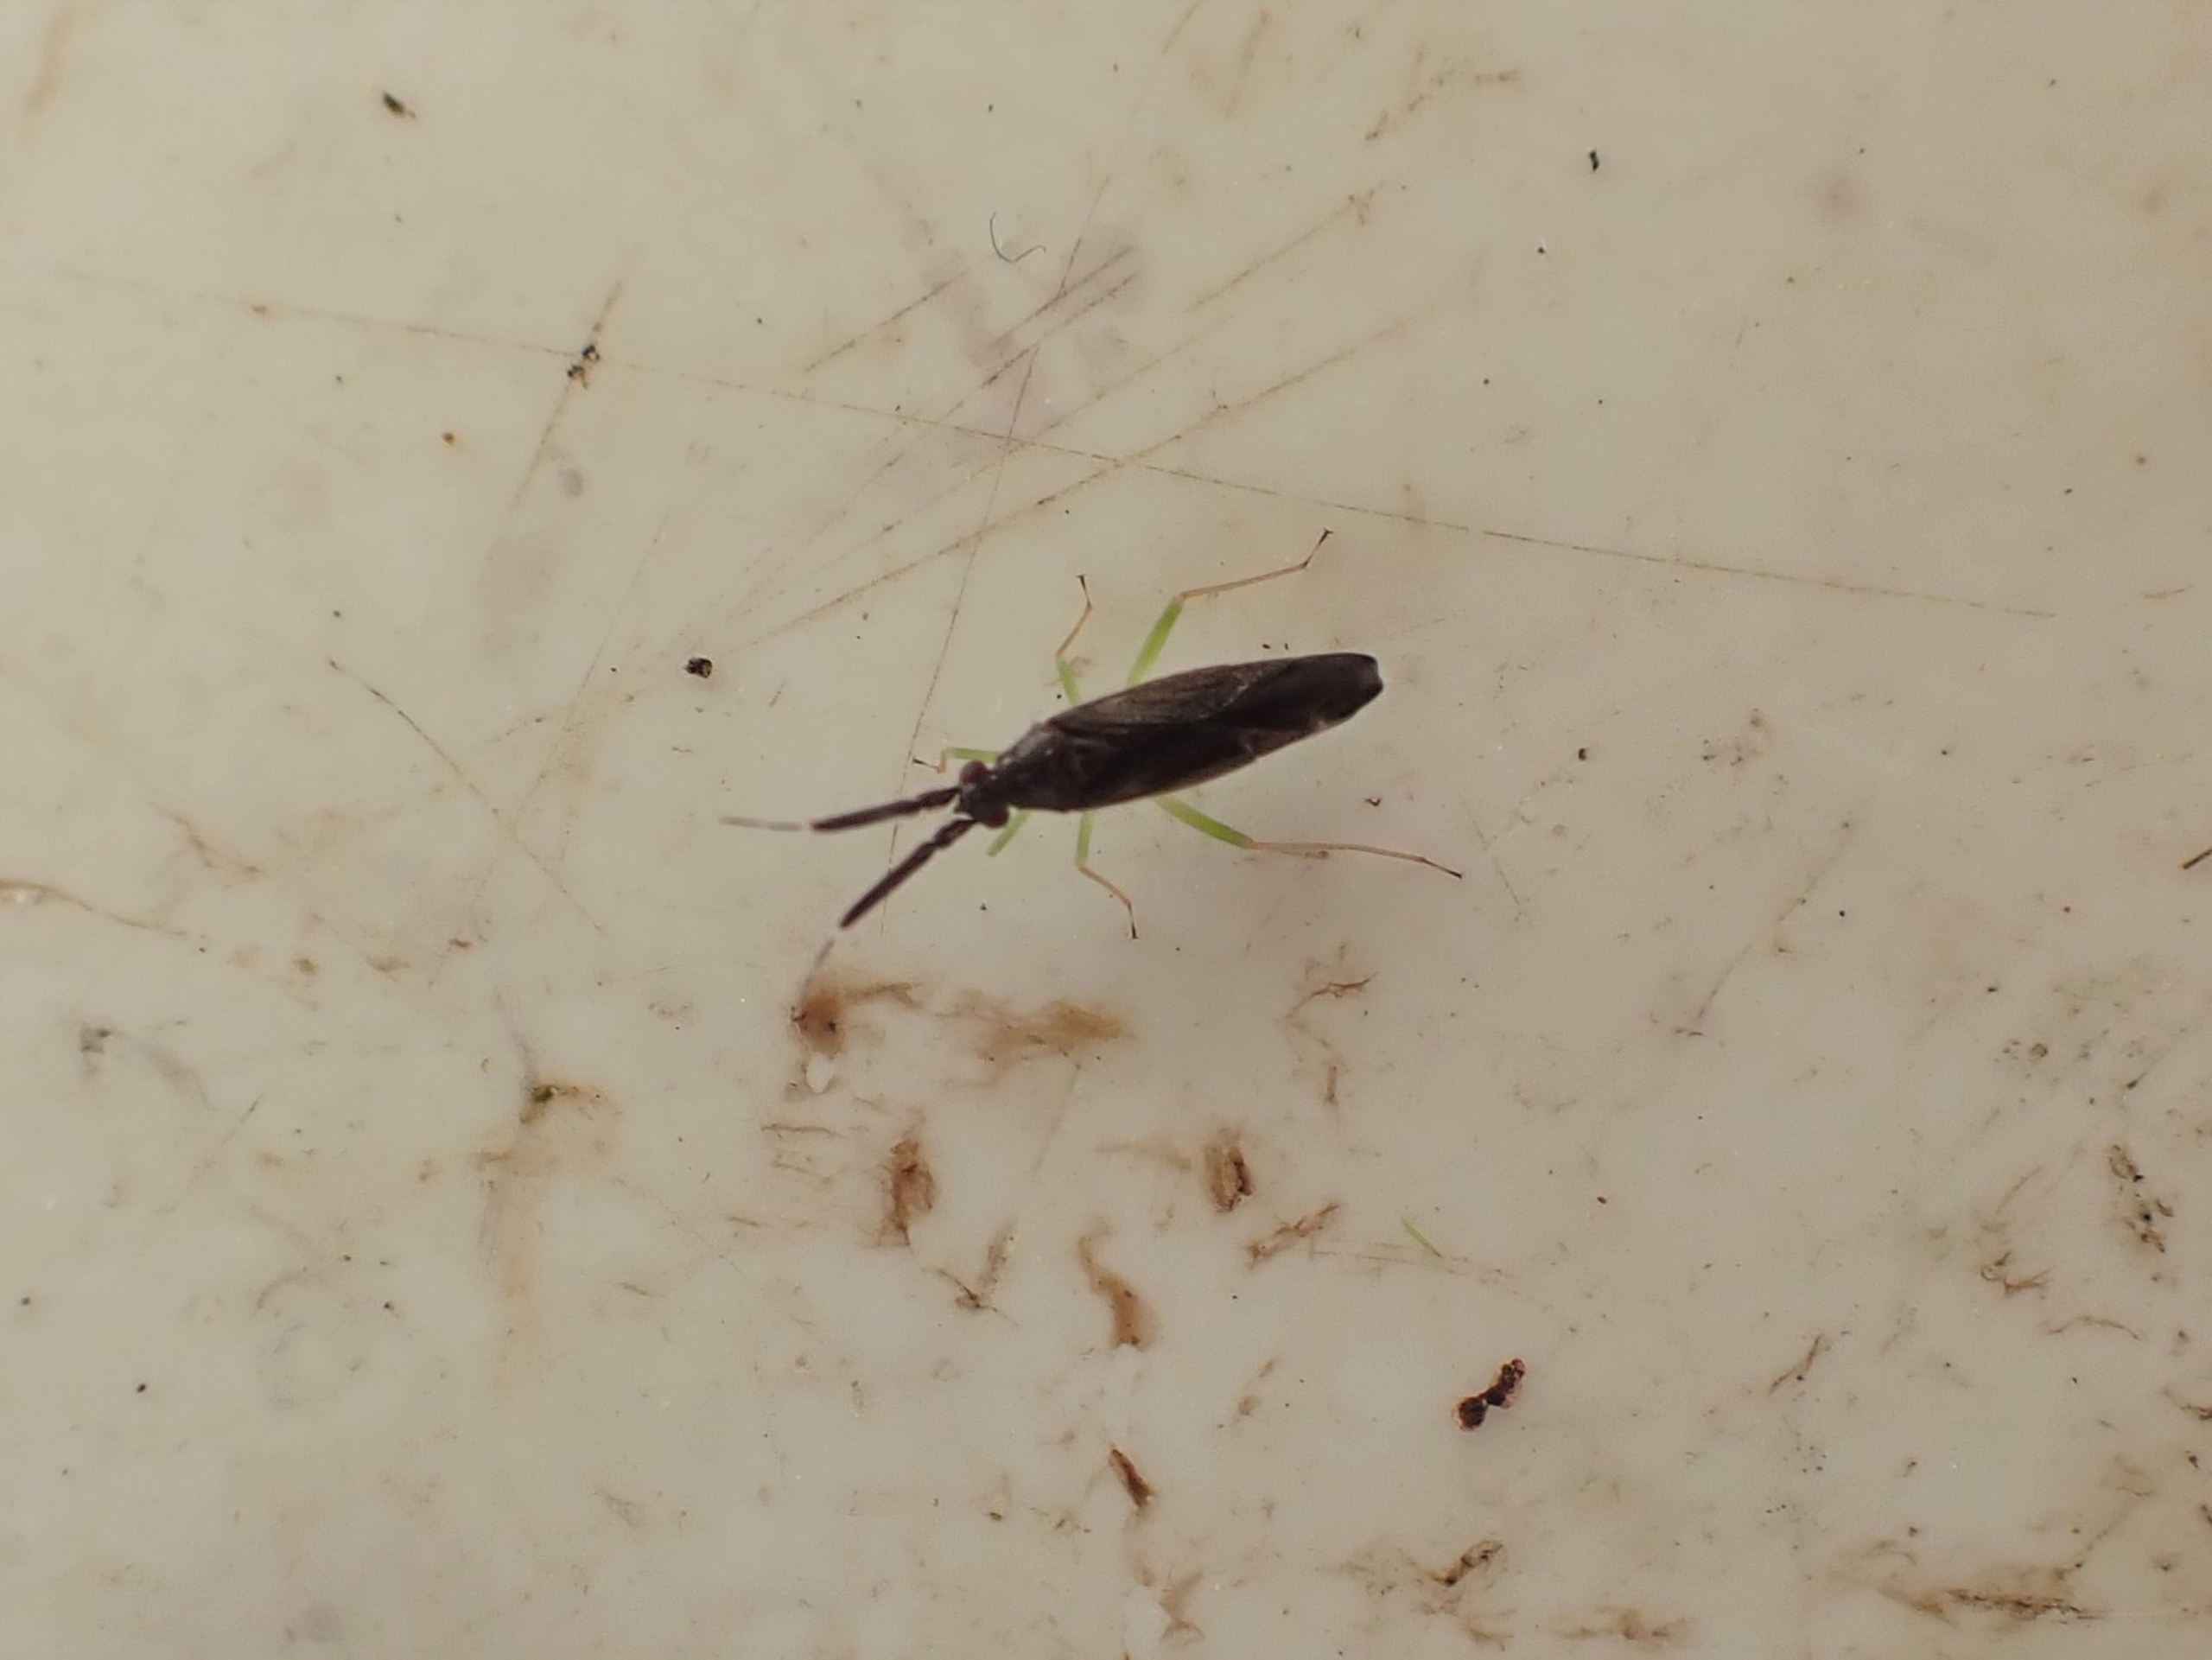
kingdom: Animalia
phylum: Arthropoda
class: Insecta
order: Hemiptera
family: Miridae
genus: Heterotoma
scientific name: Heterotoma planicornis
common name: Køllehornet blomstertæge
